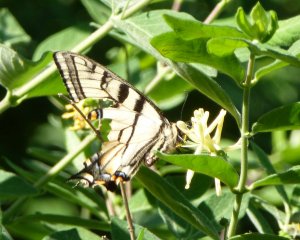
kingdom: Animalia
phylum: Arthropoda
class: Insecta
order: Lepidoptera
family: Papilionidae
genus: Pterourus
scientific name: Pterourus canadensis
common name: Canadian Tiger Swallowtail
